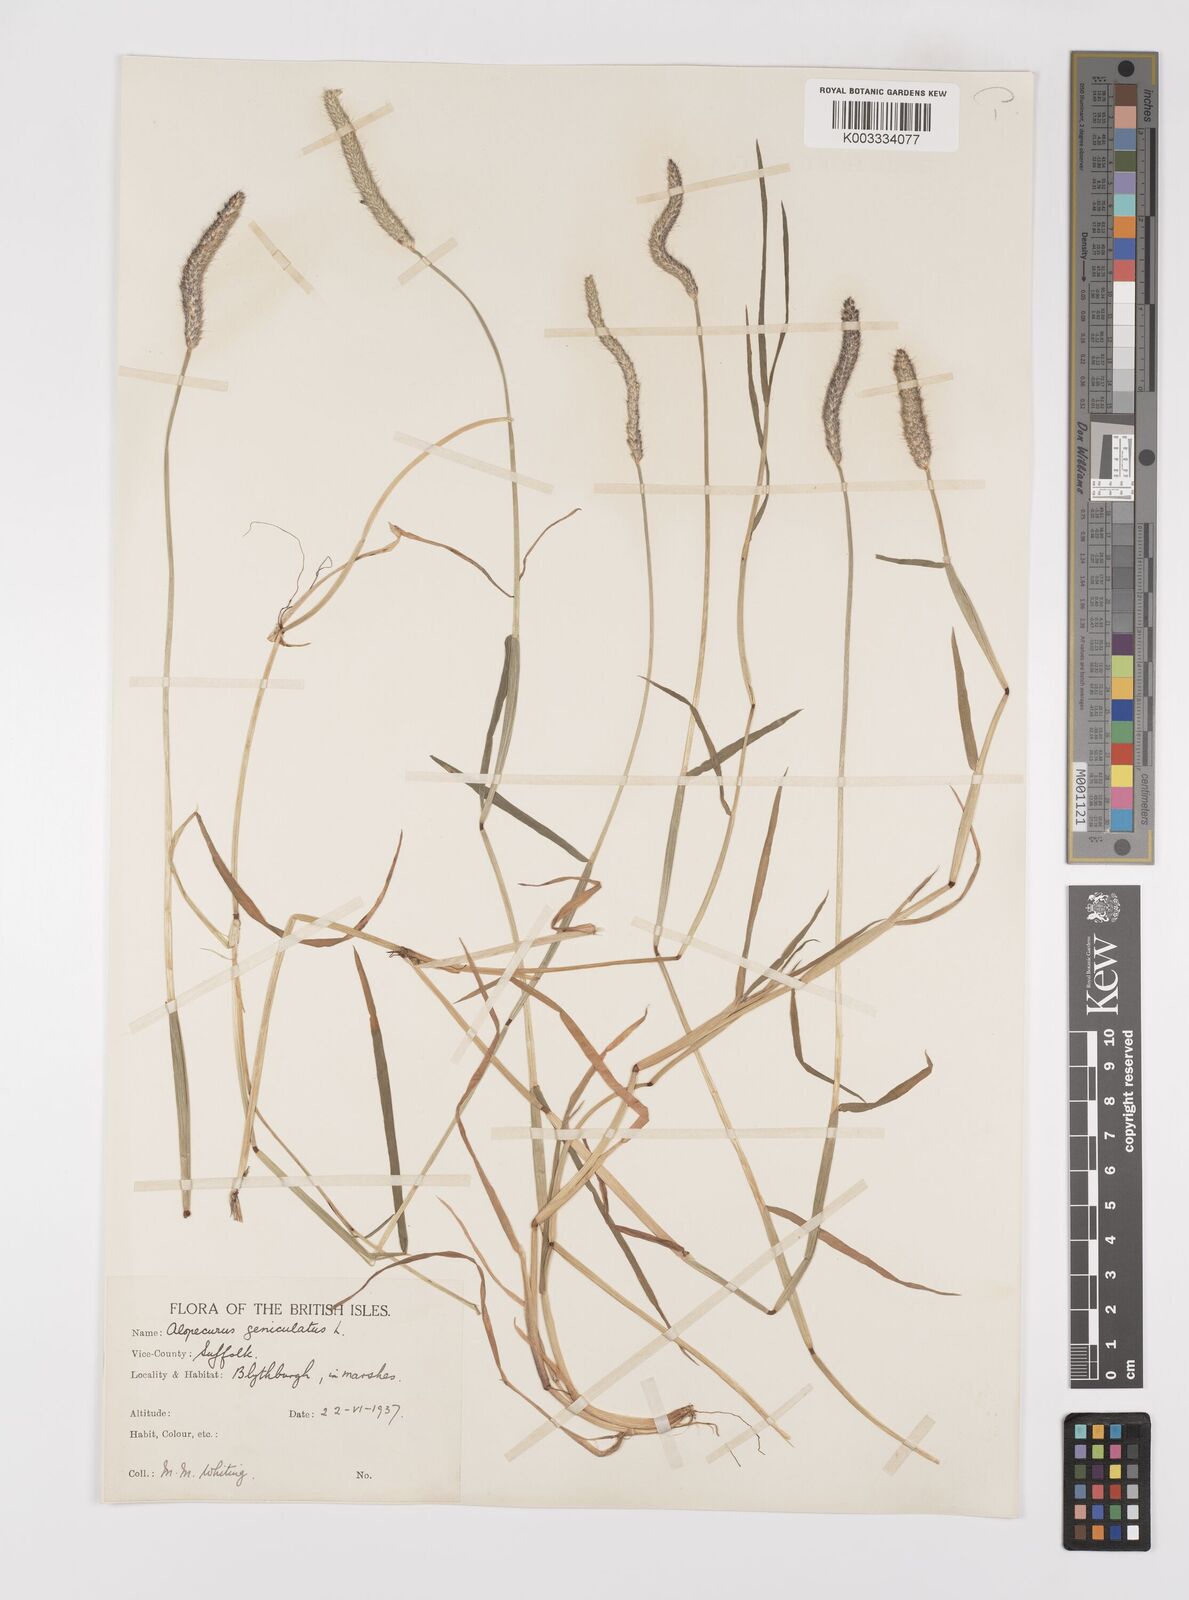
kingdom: Plantae
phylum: Tracheophyta
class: Liliopsida
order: Poales
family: Poaceae
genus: Alopecurus
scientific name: Alopecurus geniculatus
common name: Water foxtail
